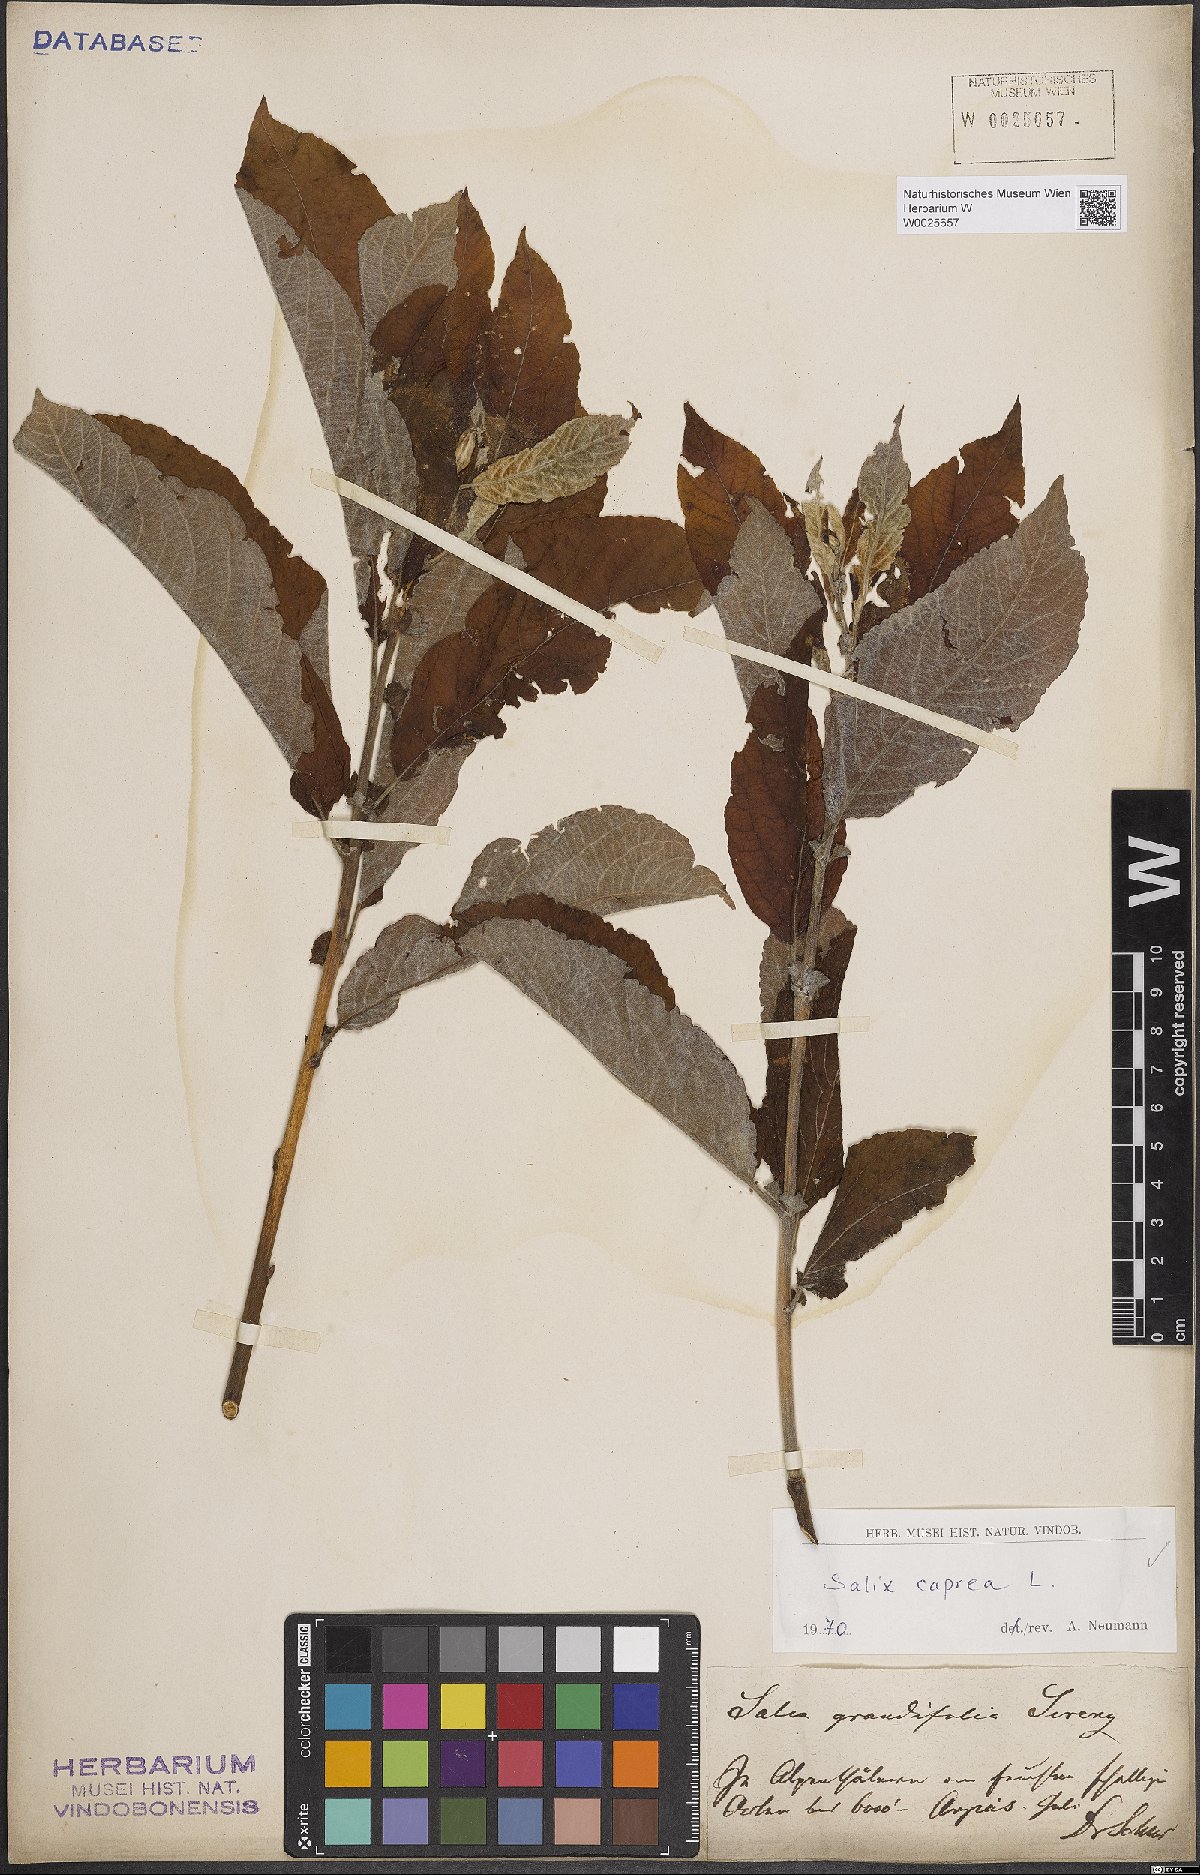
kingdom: Plantae
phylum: Tracheophyta
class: Magnoliopsida
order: Malpighiales
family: Salicaceae
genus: Salix
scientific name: Salix caprea
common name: Goat willow
